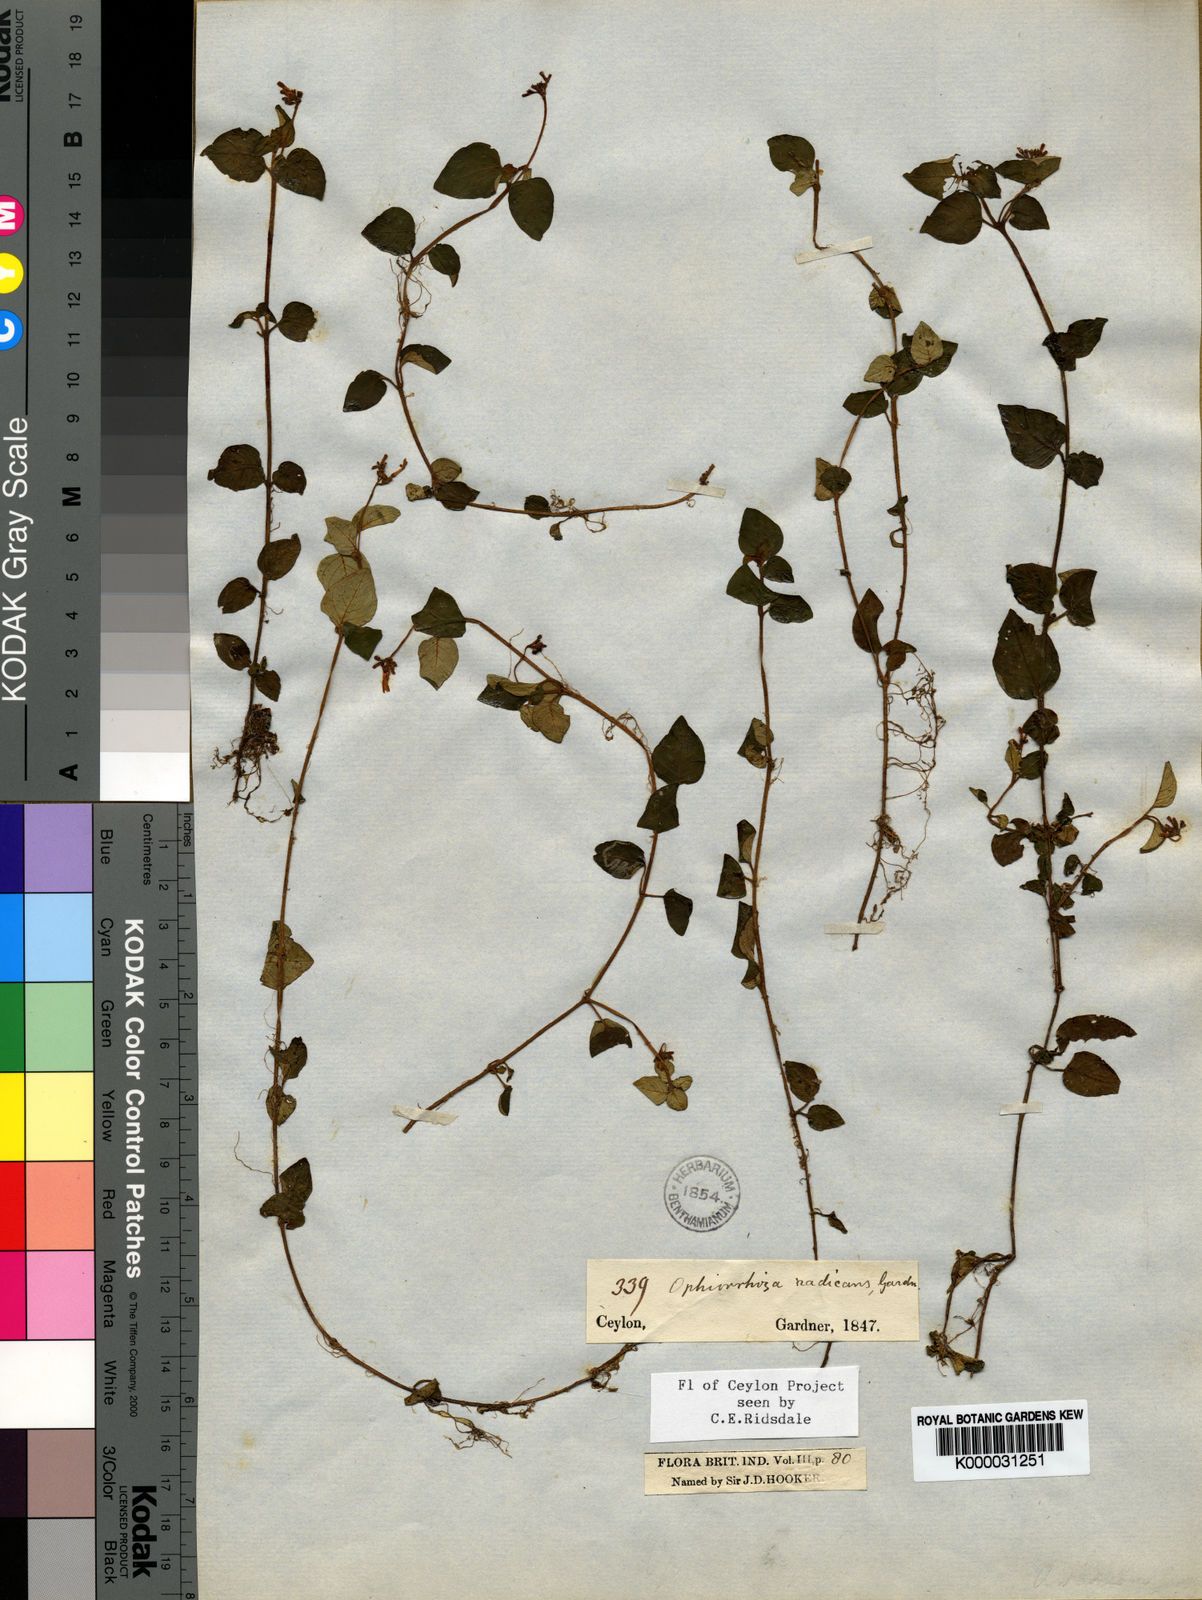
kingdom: Plantae
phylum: Tracheophyta
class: Magnoliopsida
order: Gentianales
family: Rubiaceae
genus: Ophiorrhiza
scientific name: Ophiorrhiza
